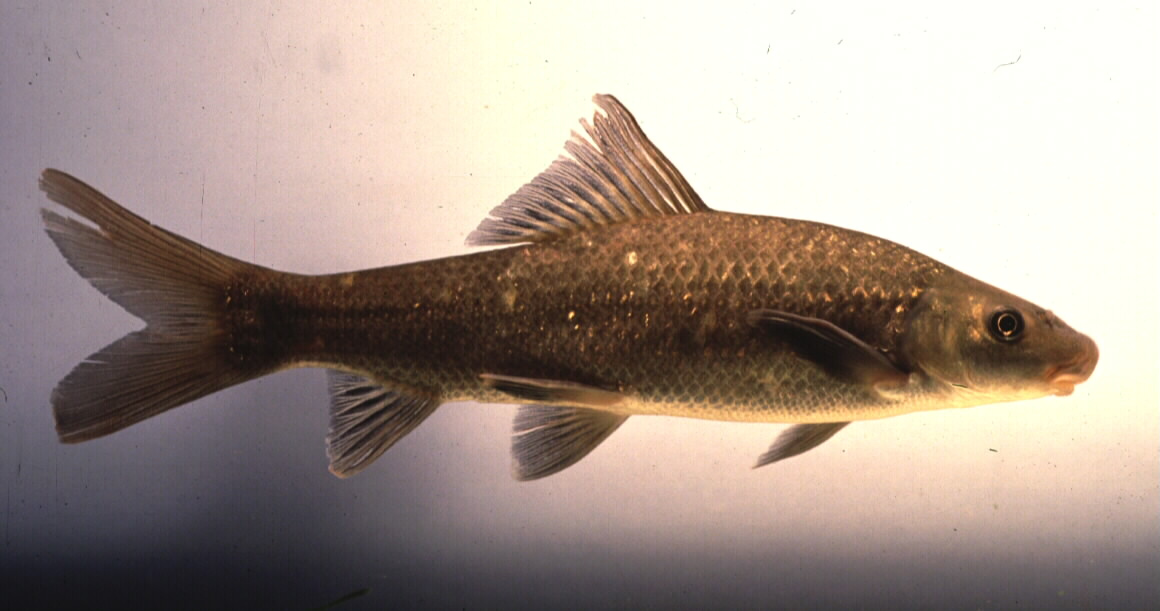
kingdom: Animalia
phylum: Chordata
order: Cypriniformes
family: Cyprinidae
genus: Labeo
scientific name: Labeo capensis
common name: Orange river mudfish
